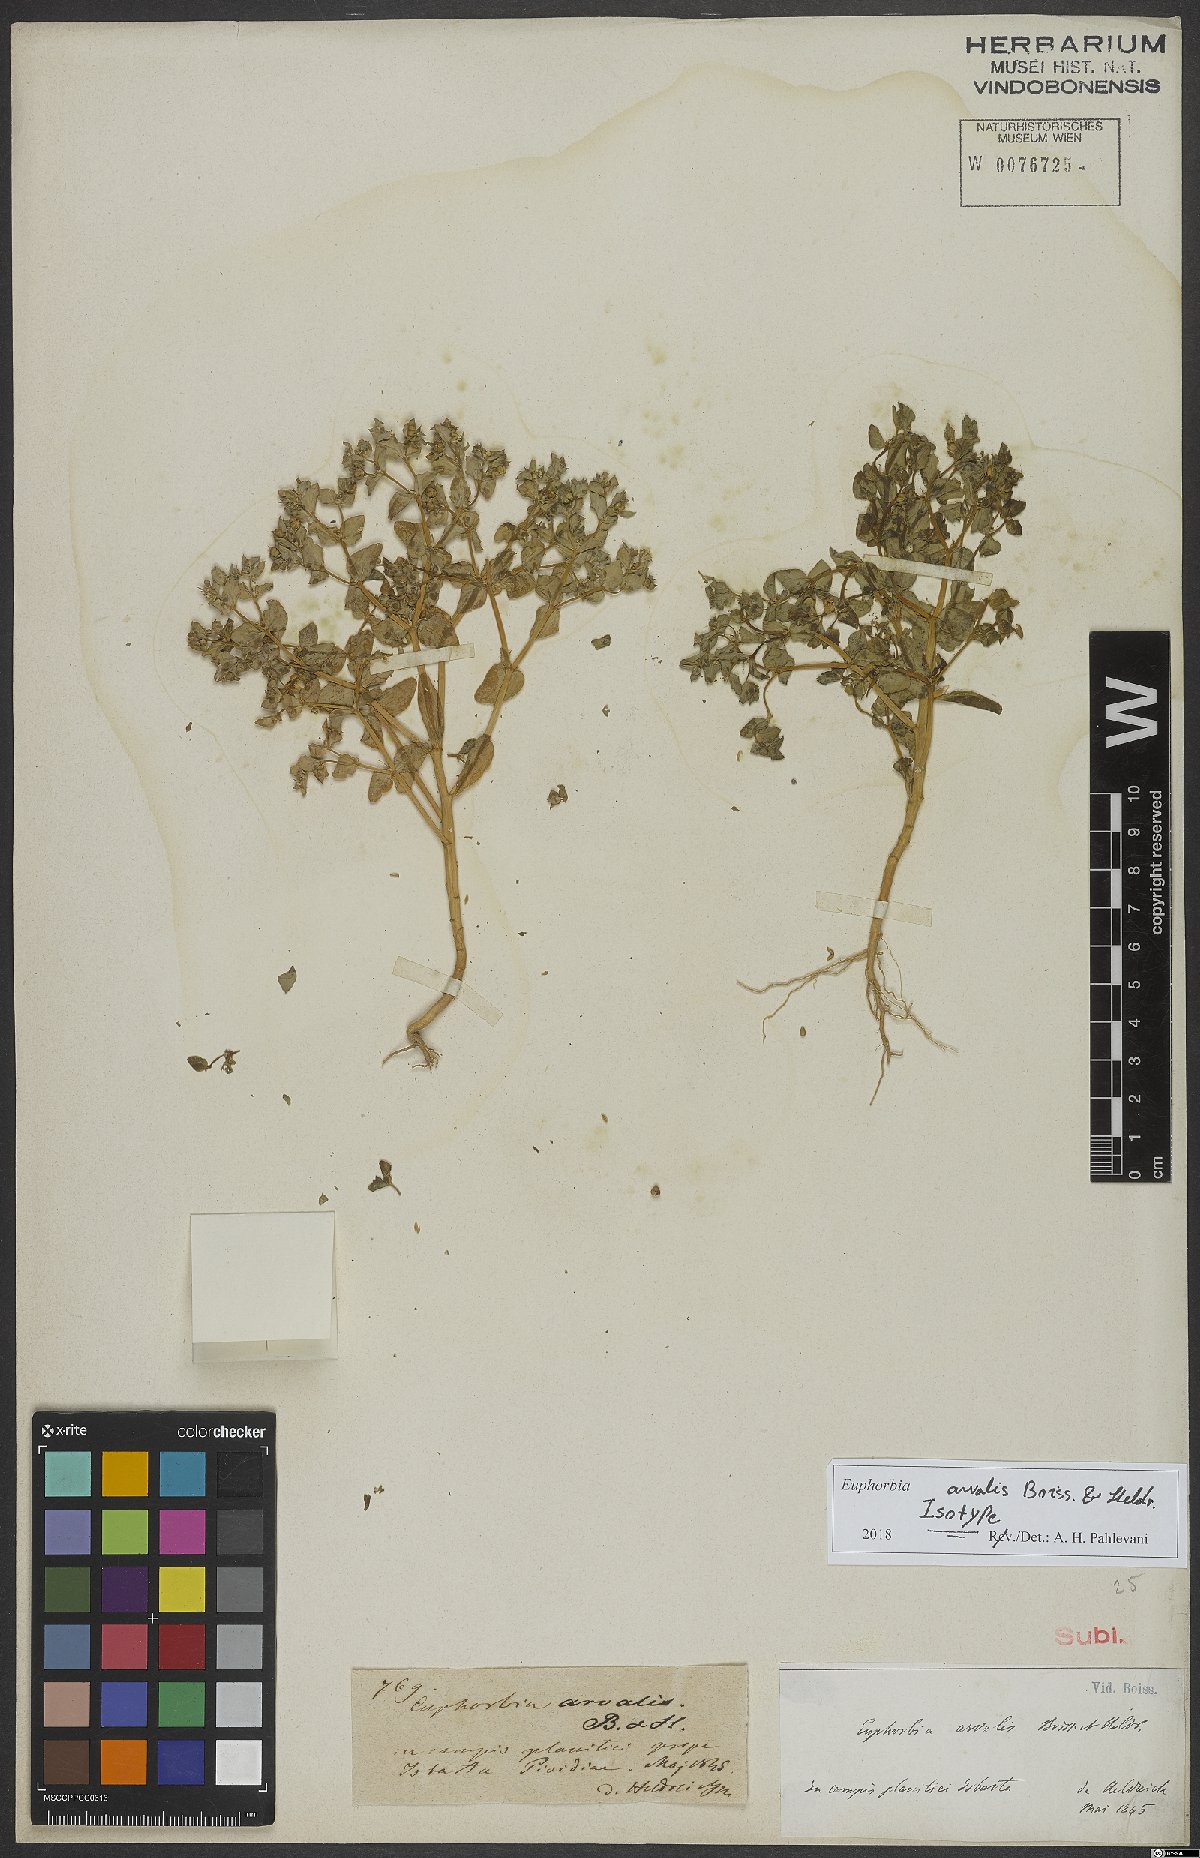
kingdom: Plantae
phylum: Tracheophyta
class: Magnoliopsida
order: Malpighiales
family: Euphorbiaceae
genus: Euphorbia
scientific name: Euphorbia arvalis
